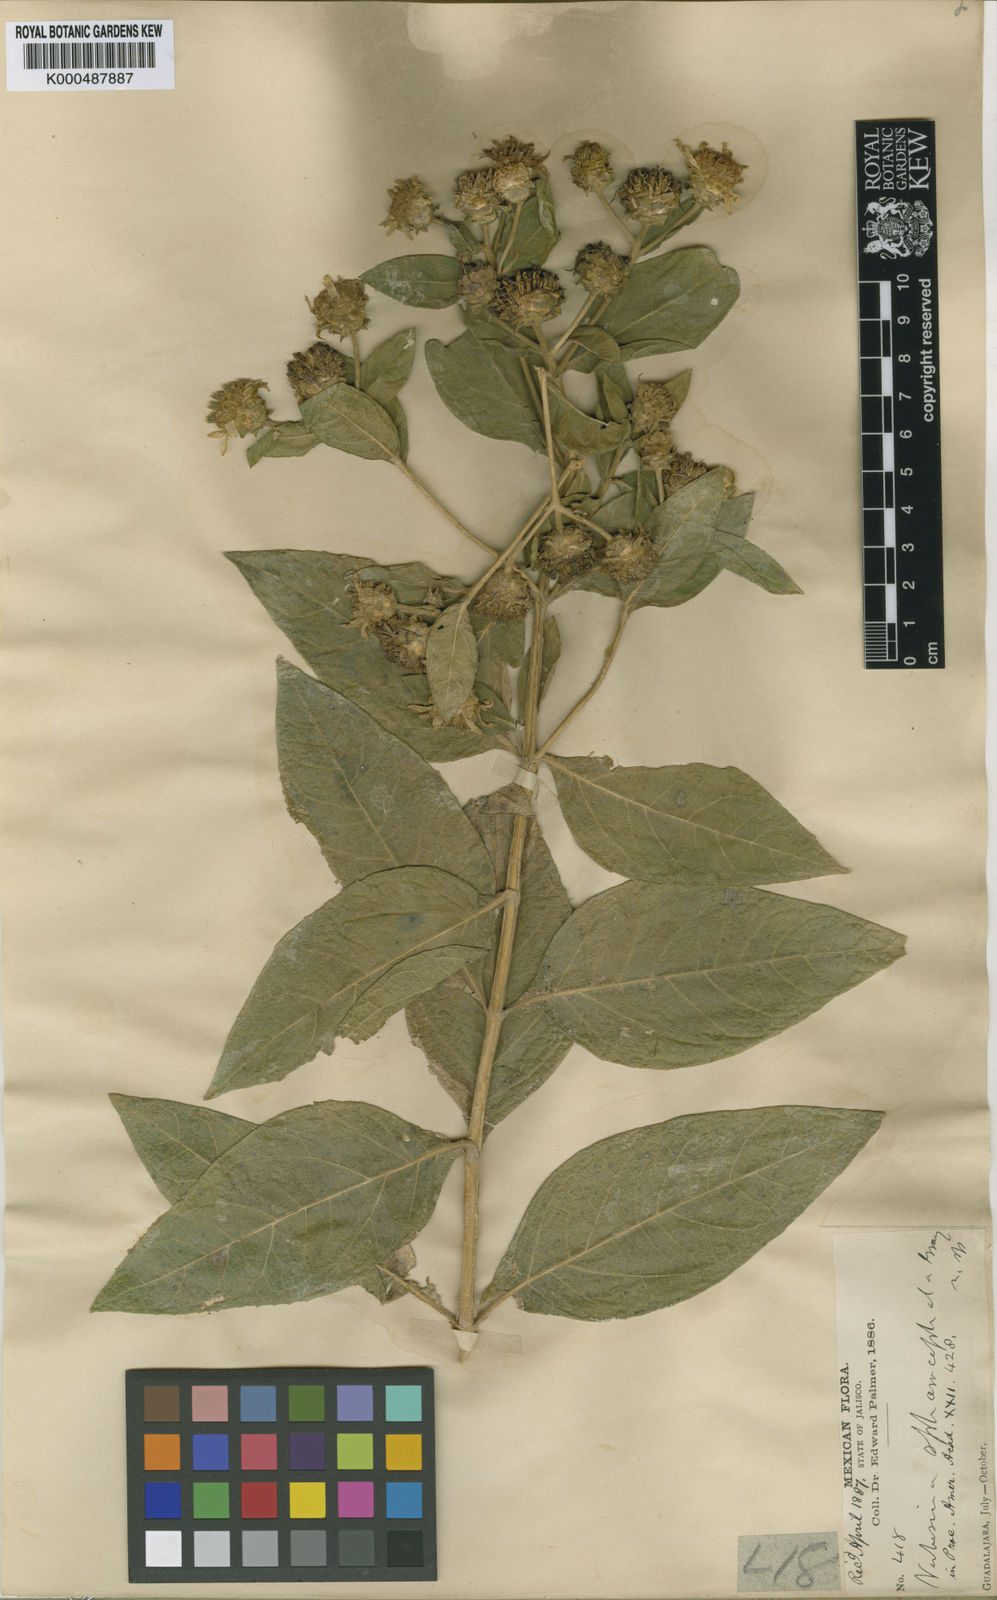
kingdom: Plantae
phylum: Tracheophyta
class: Magnoliopsida
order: Asterales
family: Asteraceae
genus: Verbesina
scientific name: Verbesina sphaerocephala
